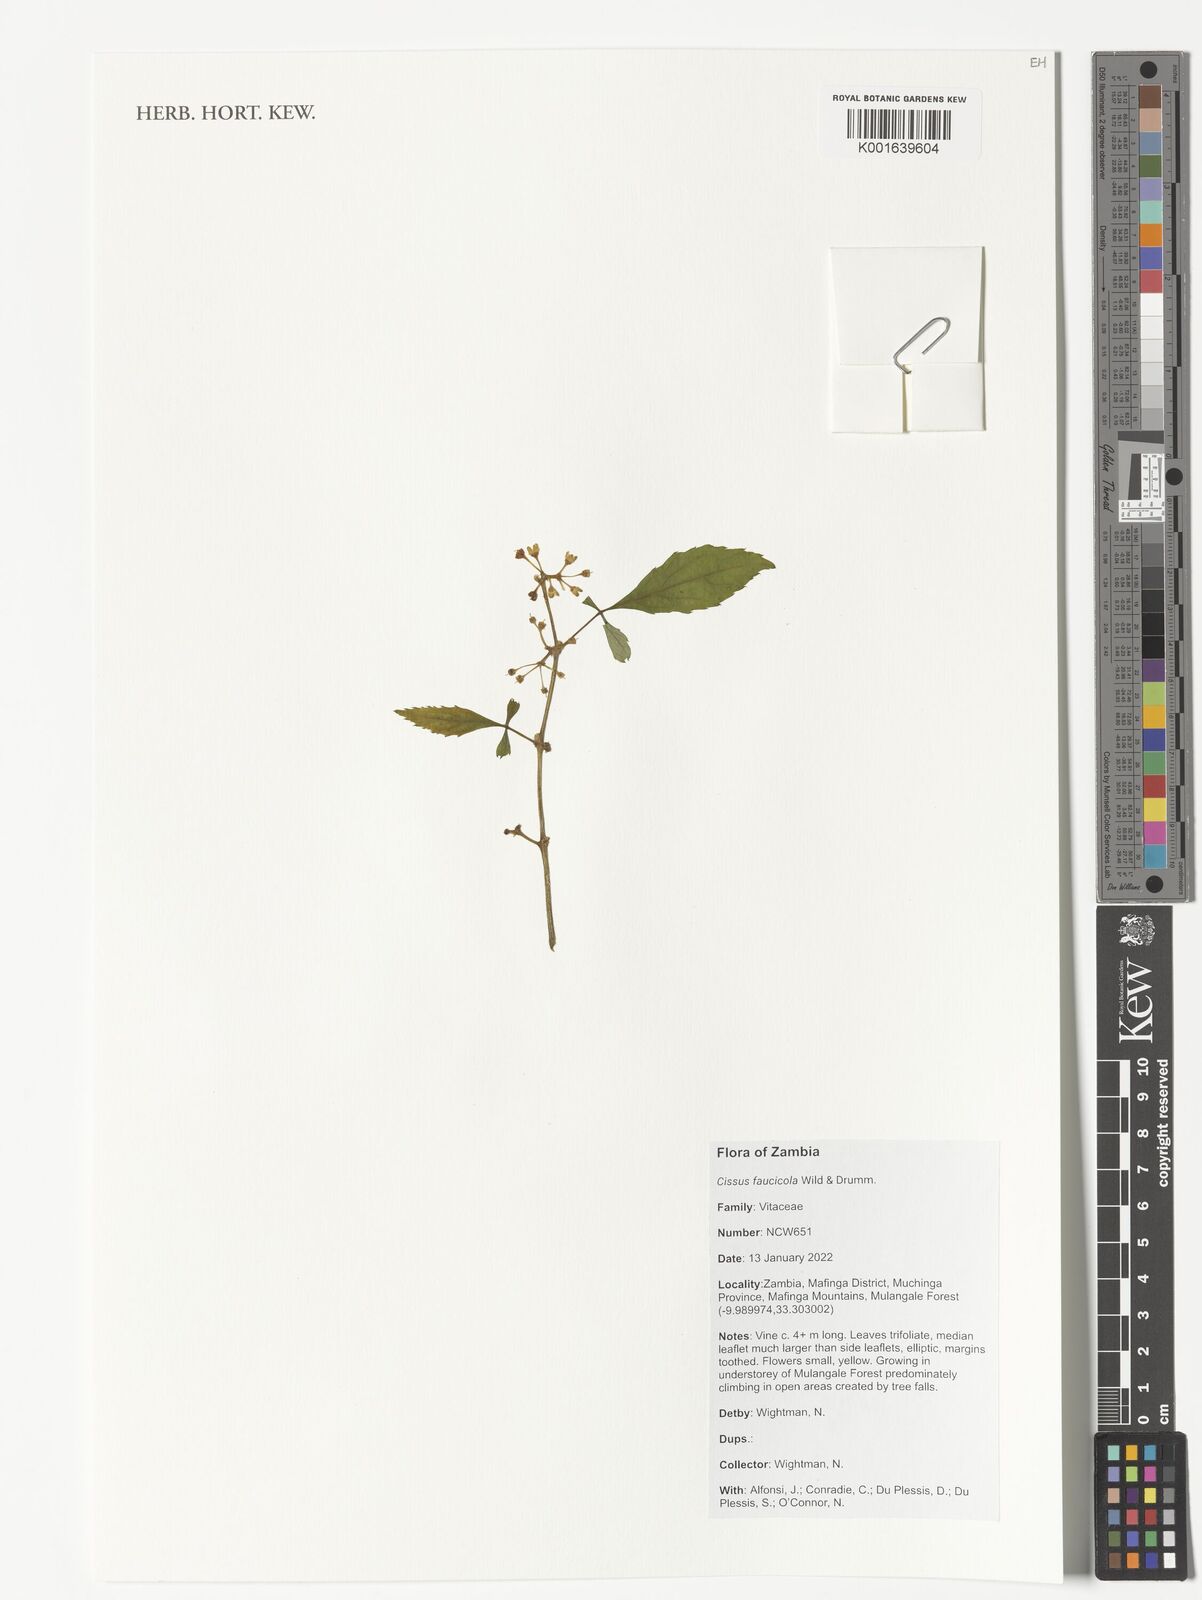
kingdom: Plantae
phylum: Tracheophyta
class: Magnoliopsida
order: Vitales
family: Vitaceae
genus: Cissus
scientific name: Cissus faucicola
